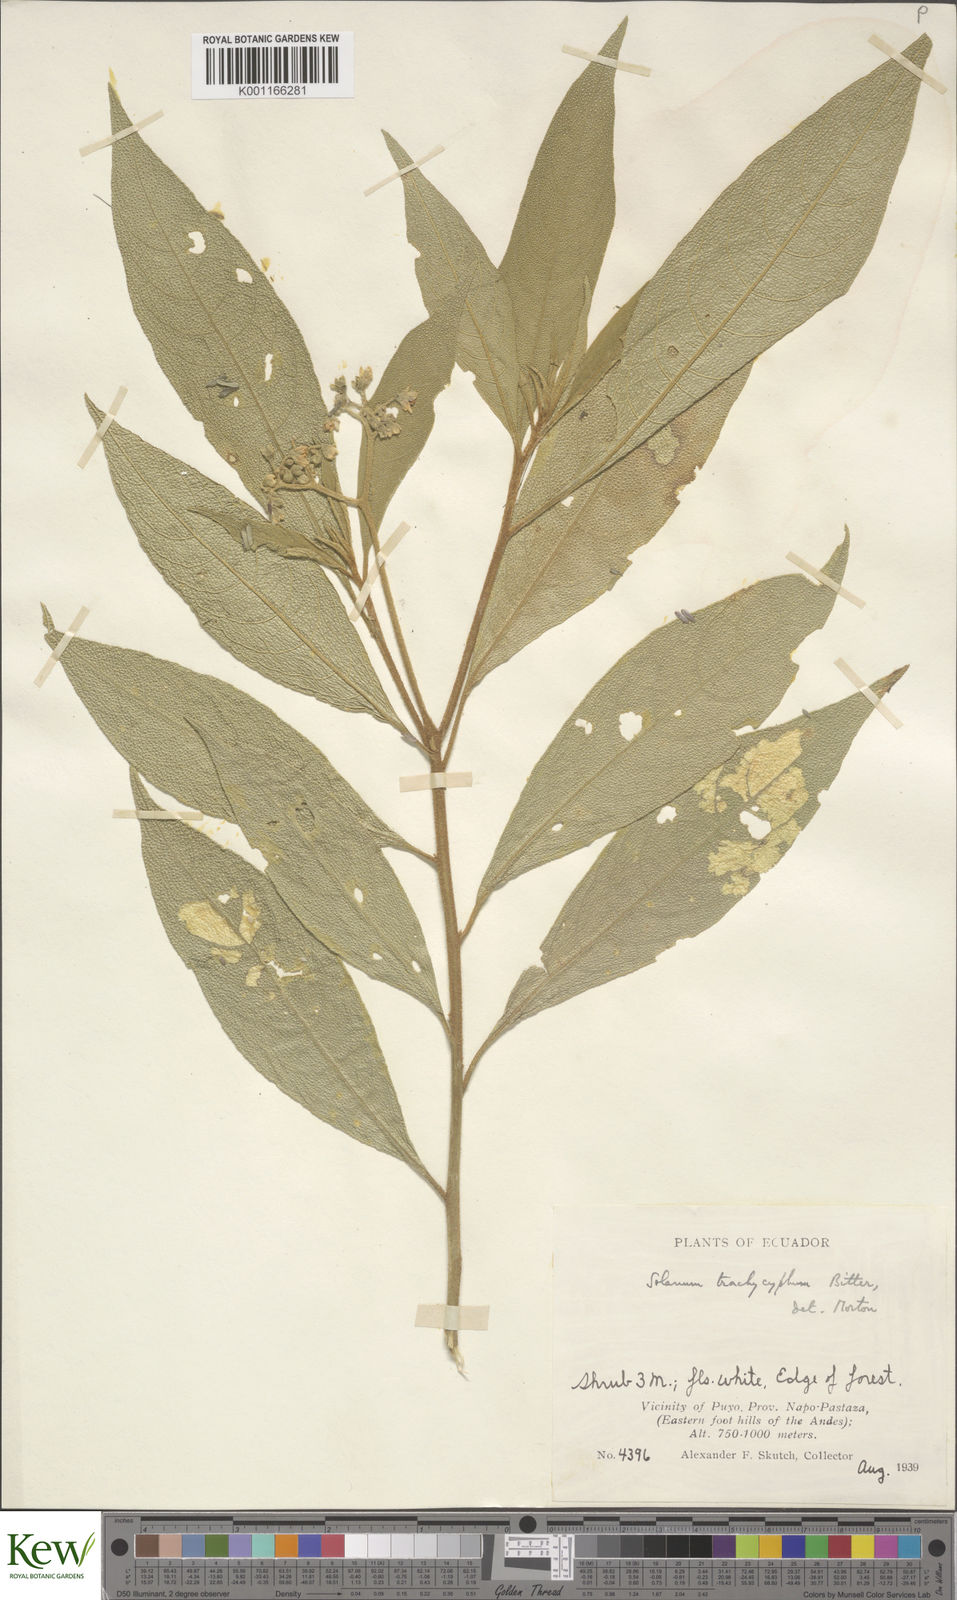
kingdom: Plantae
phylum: Tracheophyta
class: Magnoliopsida
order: Solanales
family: Solanaceae
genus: Solanum
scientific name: Solanum trachycyphum
